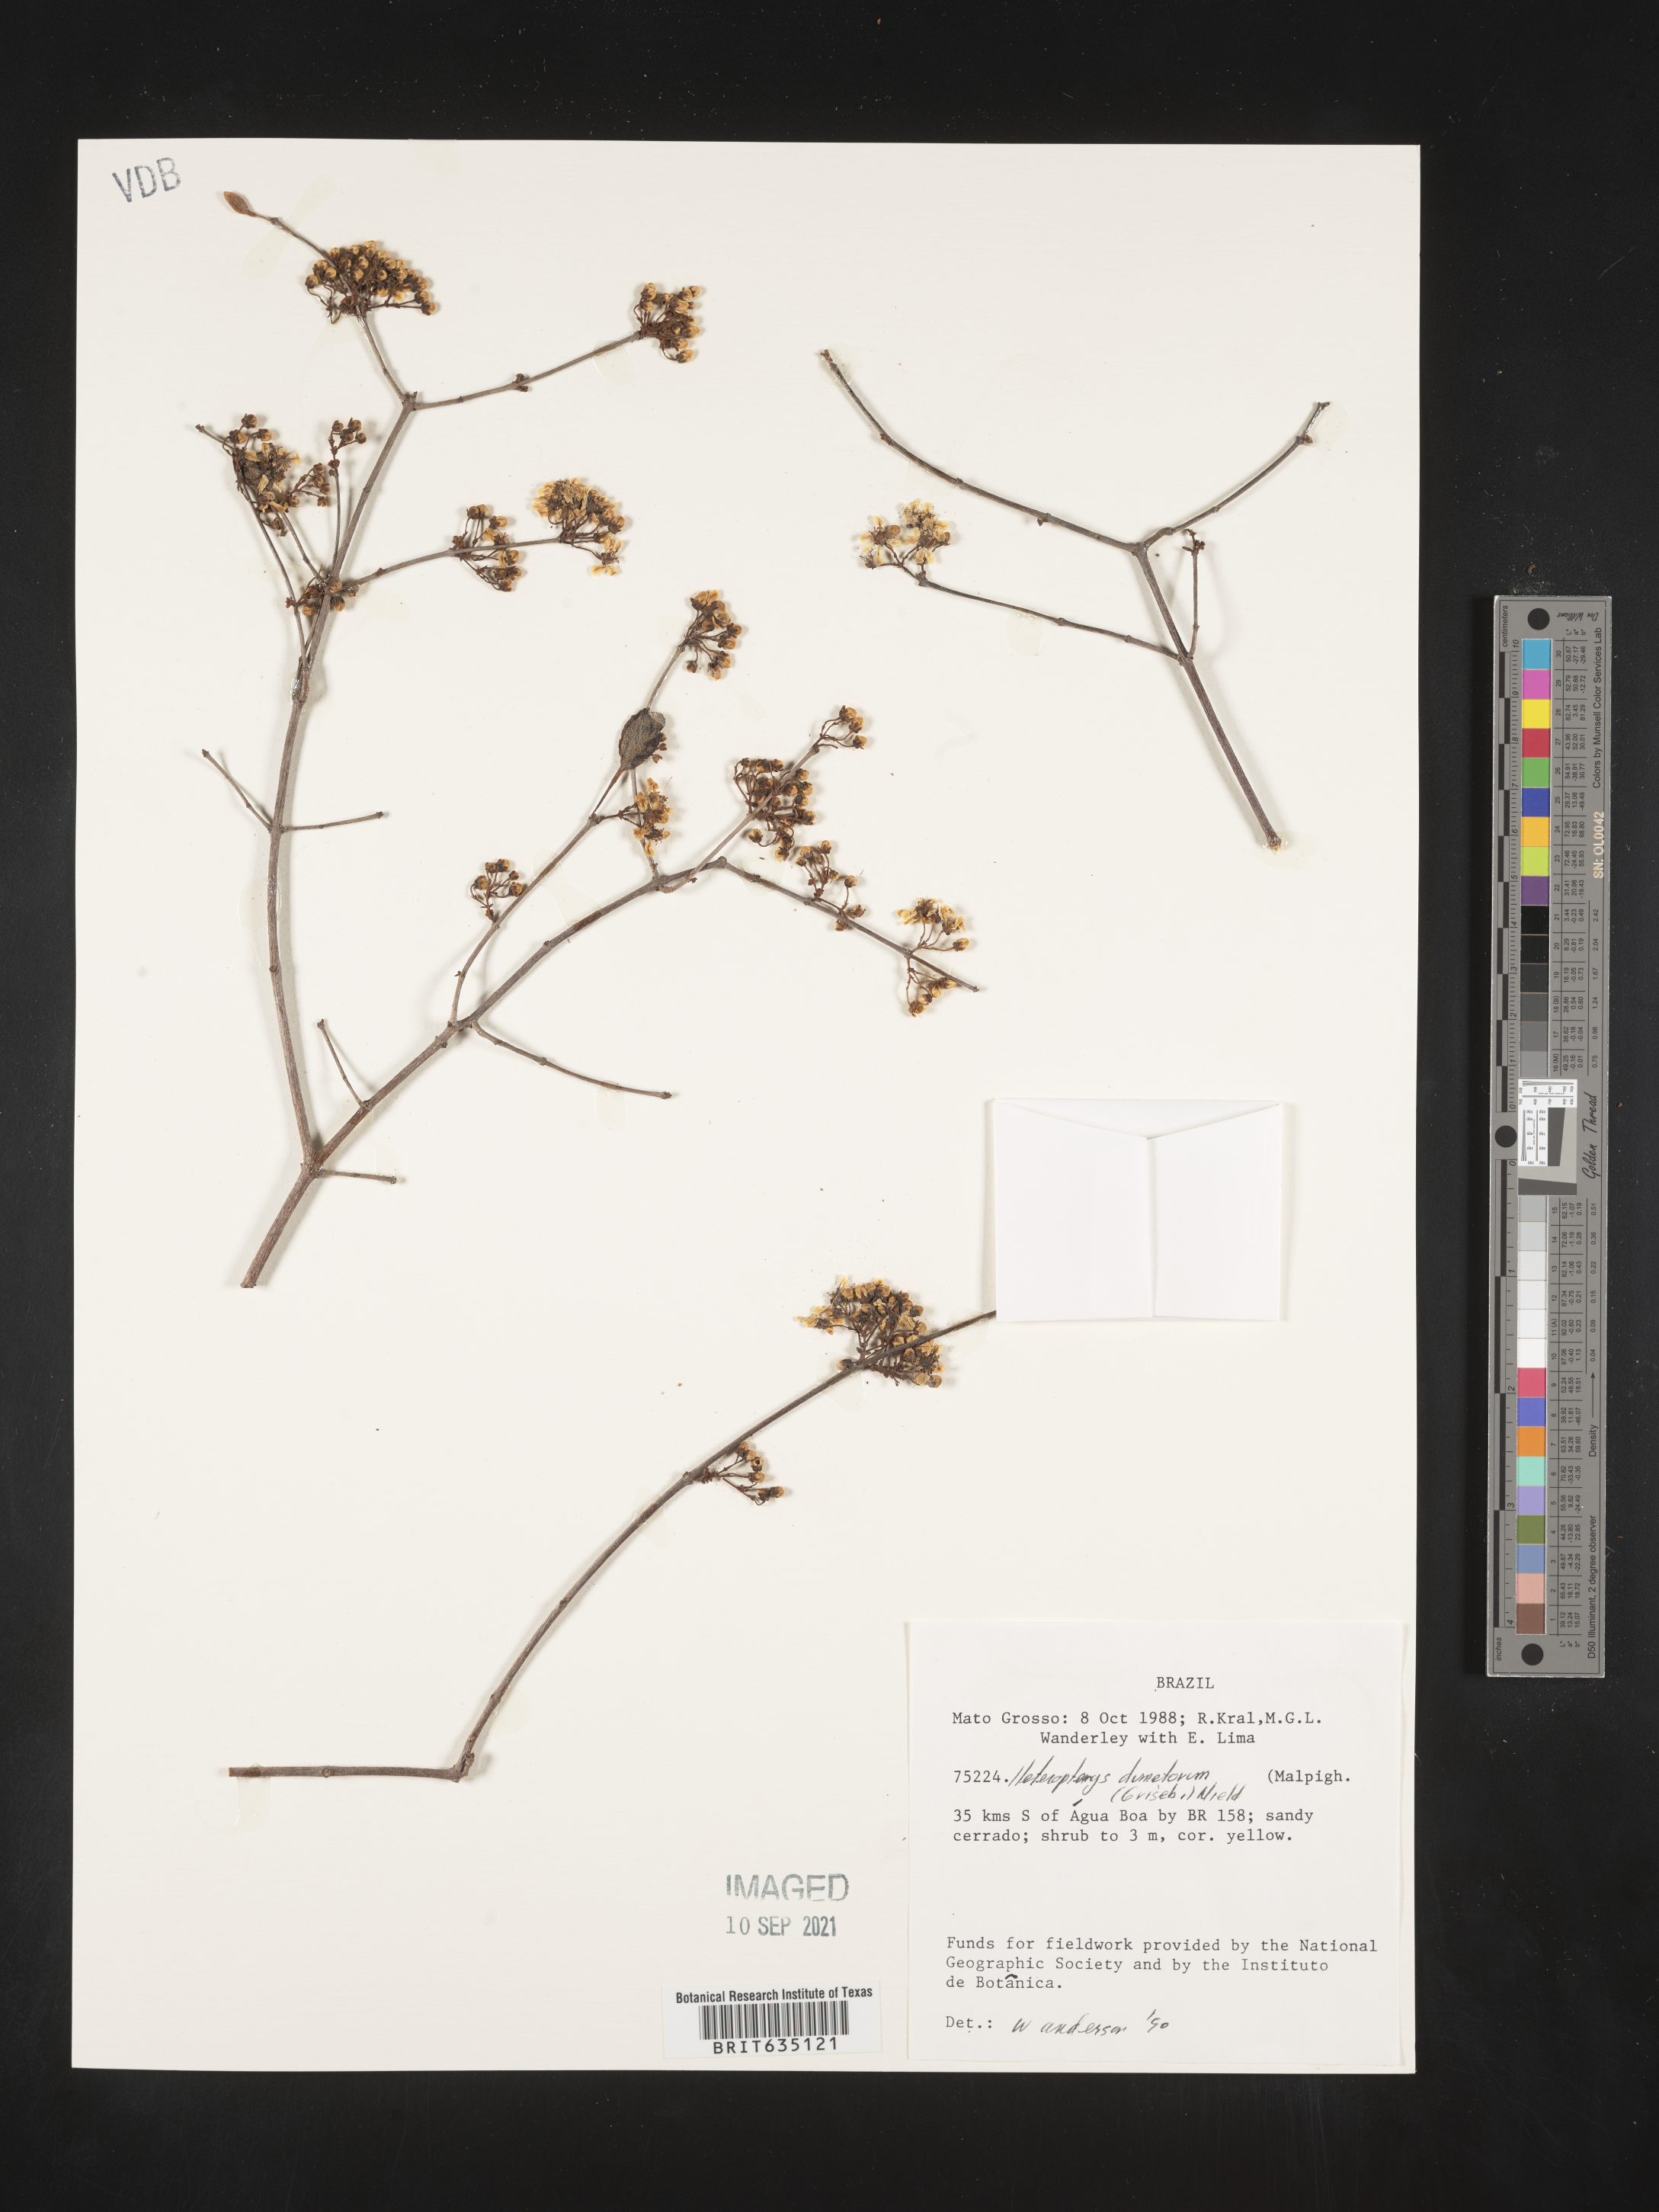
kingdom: Plantae
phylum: Tracheophyta
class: Polypodiopsida
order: Polypodiales
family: Pteridaceae
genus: Heteropteris
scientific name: Heteropteris
